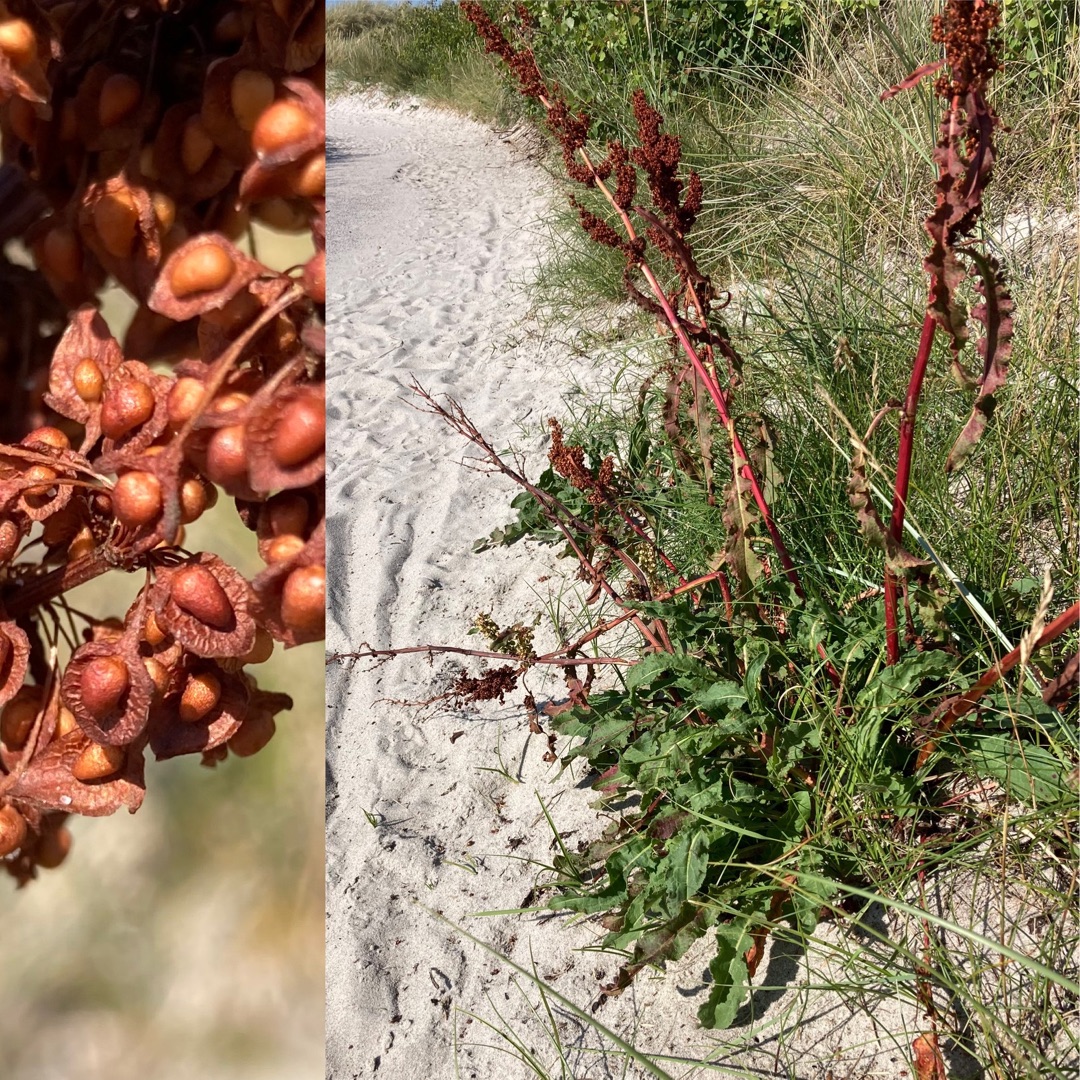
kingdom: Plantae
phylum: Tracheophyta
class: Magnoliopsida
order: Caryophyllales
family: Polygonaceae
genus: Rumex
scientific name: Rumex crispus
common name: Kruset skræppe
